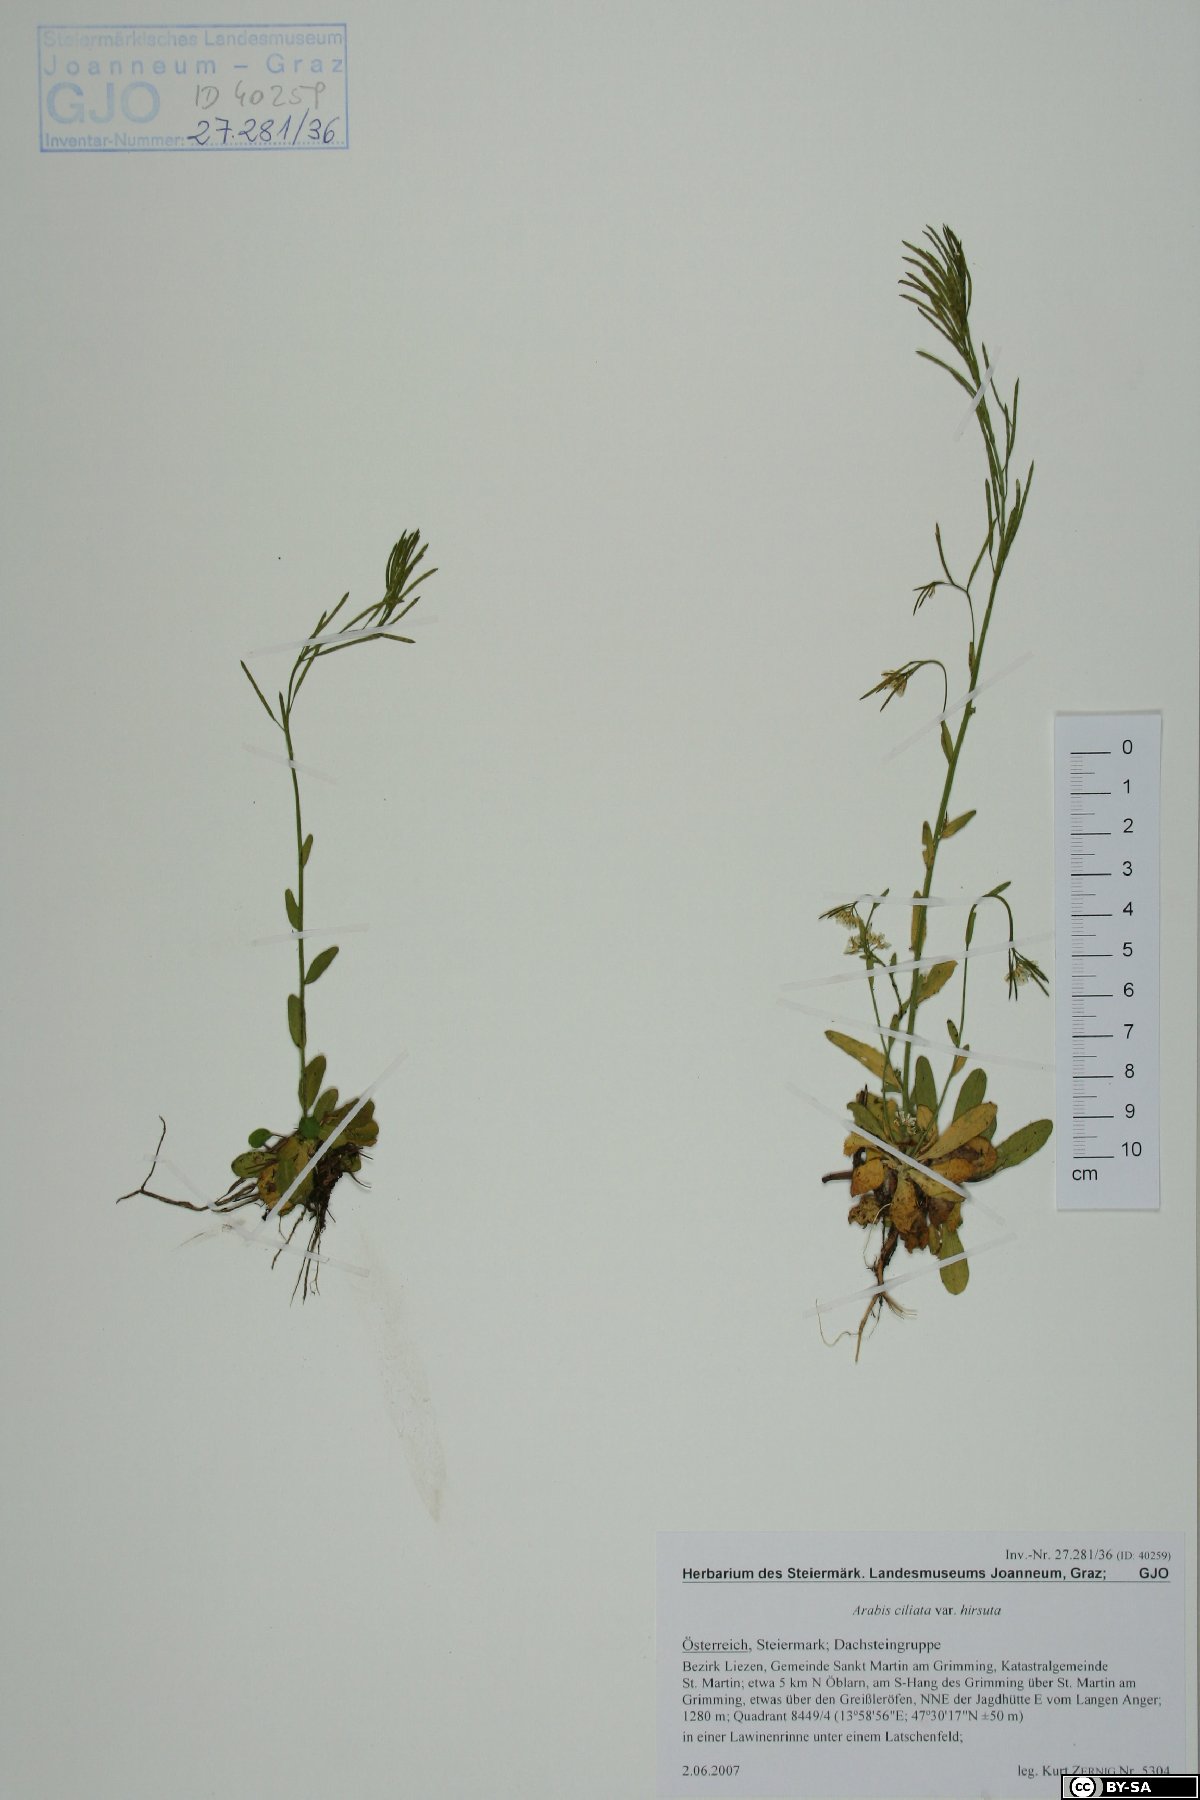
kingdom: Plantae
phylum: Tracheophyta
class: Magnoliopsida
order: Brassicales
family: Brassicaceae
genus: Arabis
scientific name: Arabis ciliata
